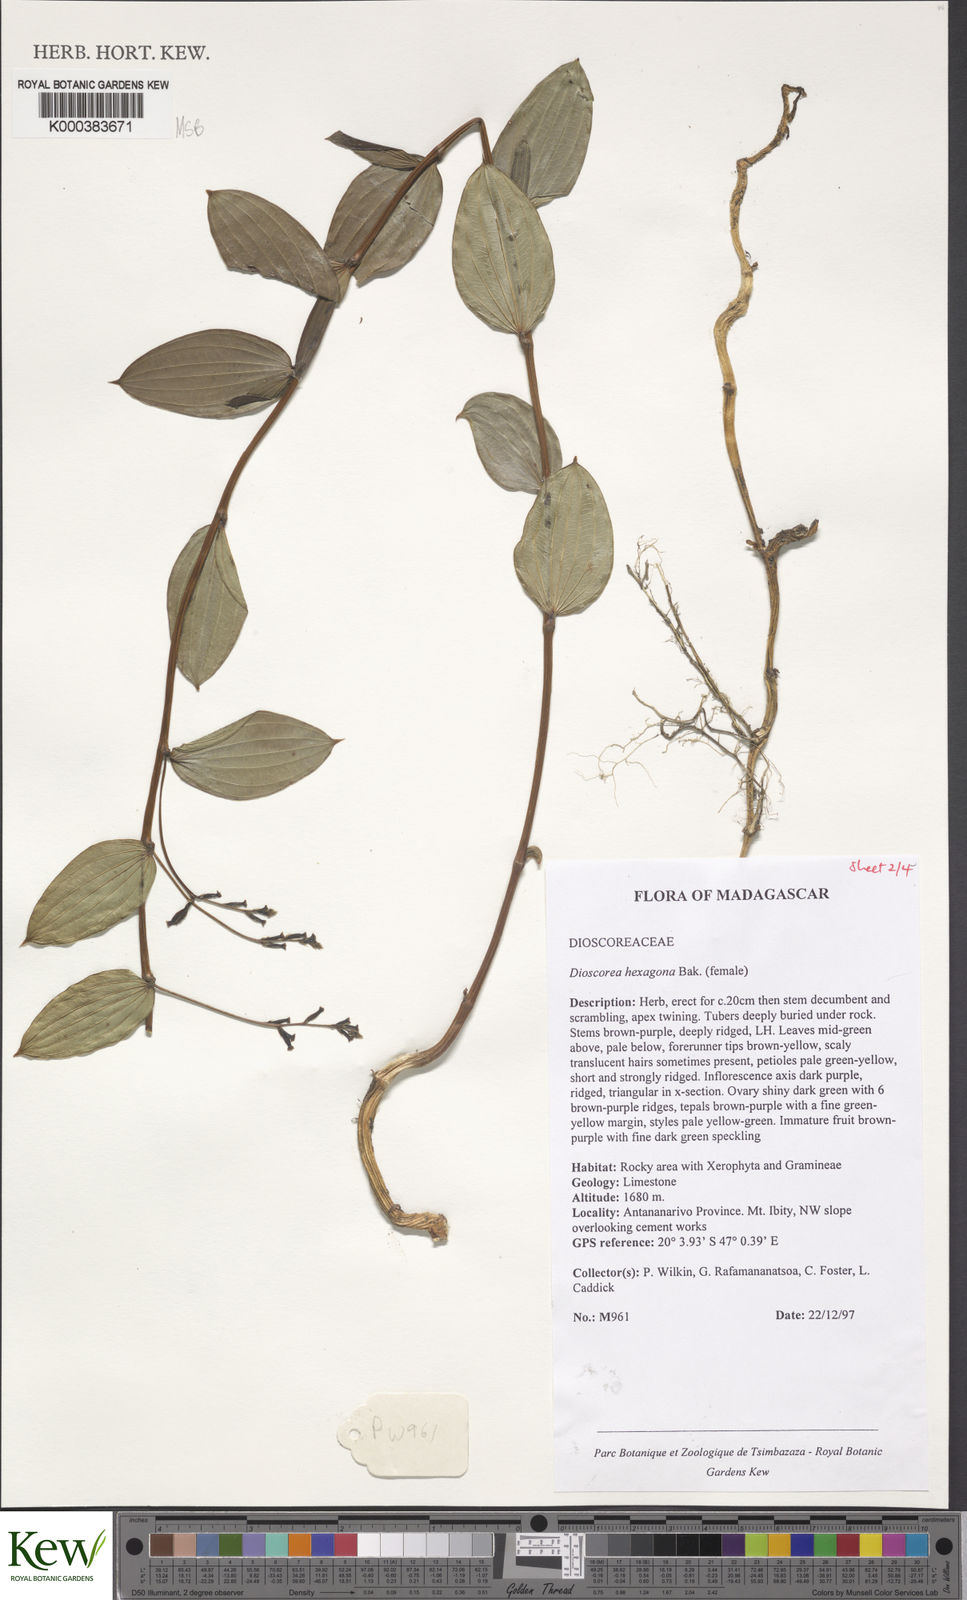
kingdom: Plantae
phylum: Tracheophyta
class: Liliopsida
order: Dioscoreales
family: Dioscoreaceae
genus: Dioscorea
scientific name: Dioscorea hexagona
